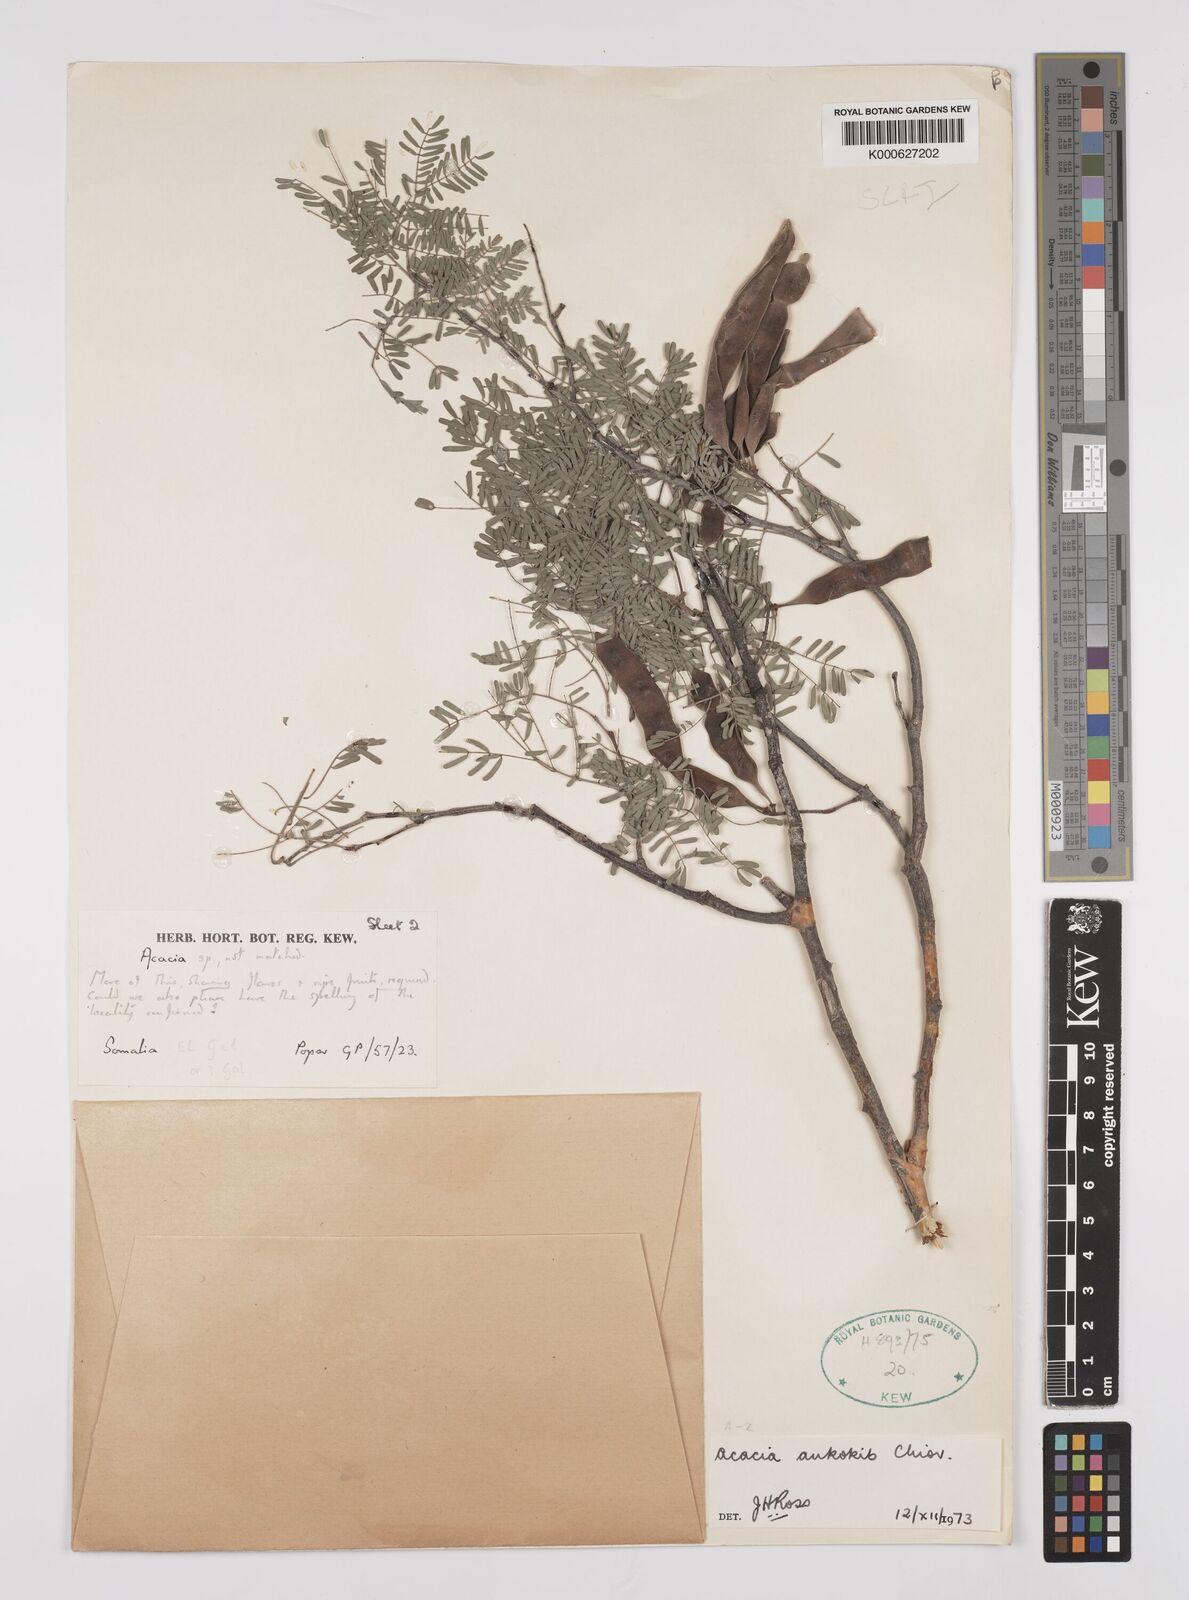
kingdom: Plantae
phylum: Tracheophyta
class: Magnoliopsida
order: Fabales
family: Fabaceae
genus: Senegalia
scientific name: Senegalia ankokib
